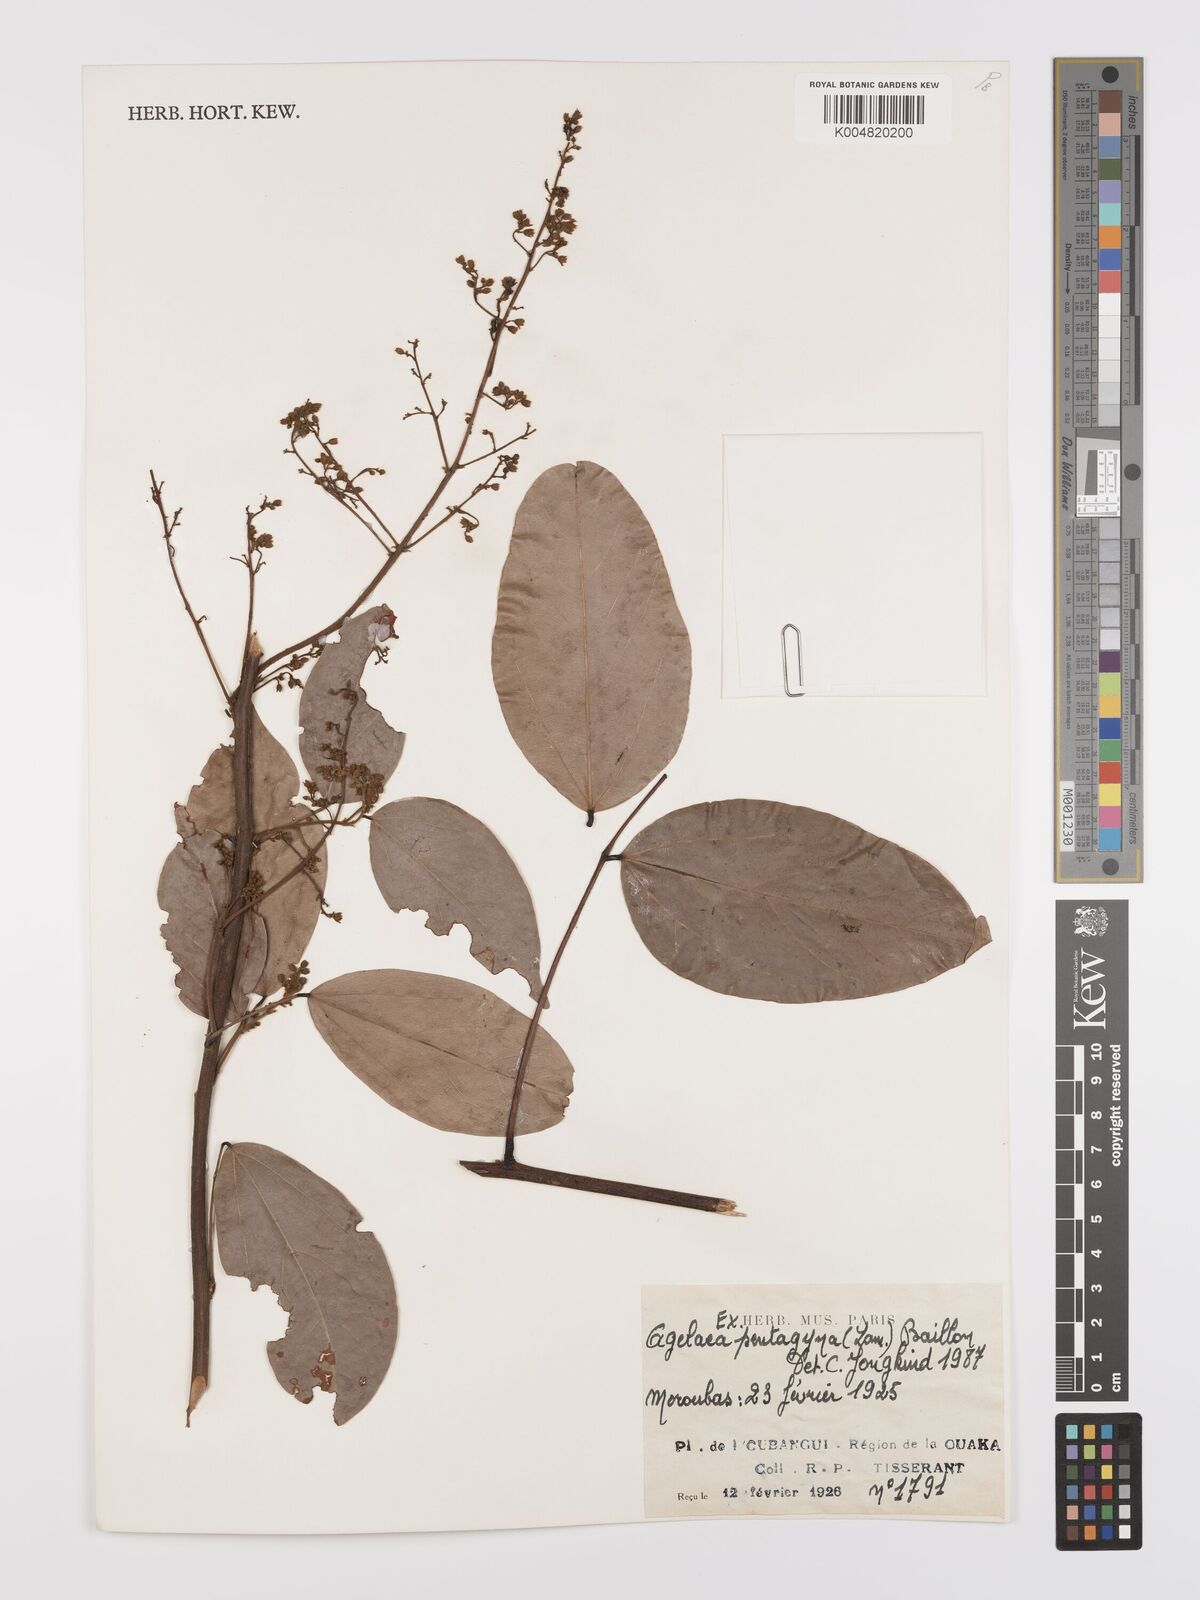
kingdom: Plantae
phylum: Tracheophyta
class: Magnoliopsida
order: Oxalidales
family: Connaraceae
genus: Agelaea
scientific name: Agelaea pentagyna
